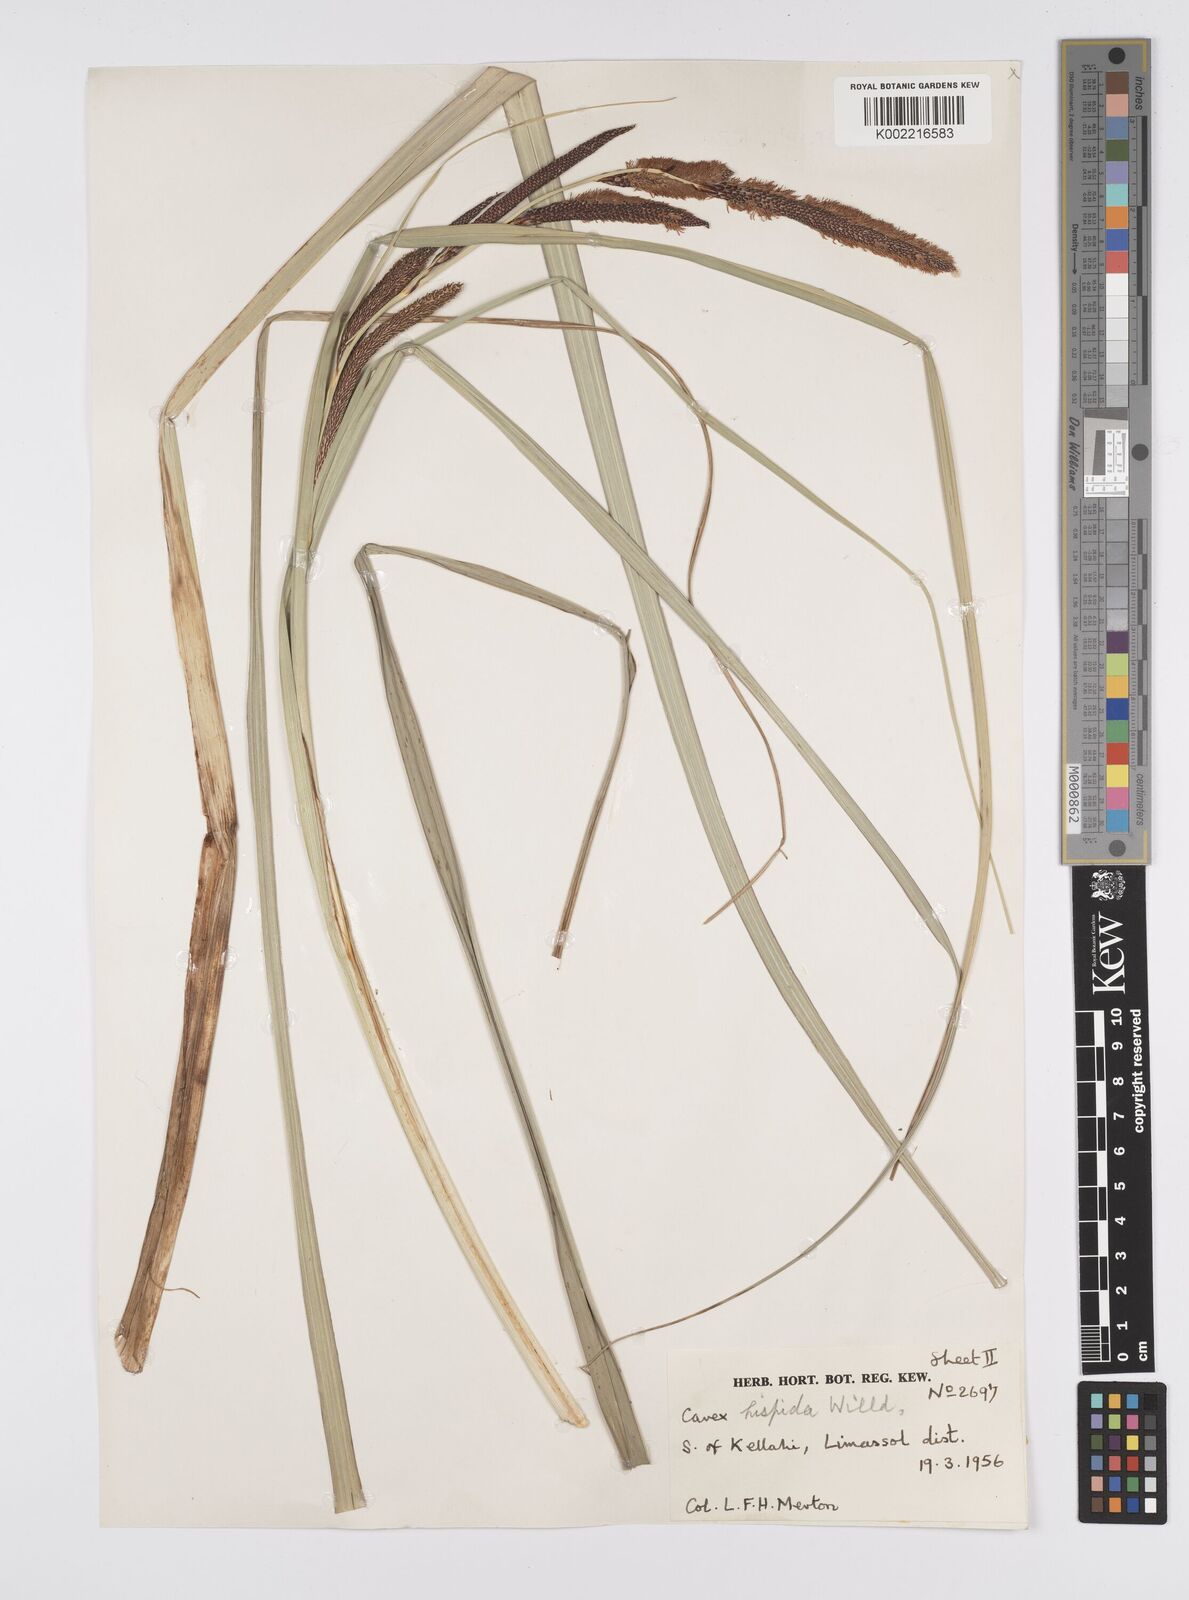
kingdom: Plantae
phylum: Tracheophyta
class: Liliopsida
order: Poales
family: Cyperaceae
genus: Carex
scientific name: Carex hispida
